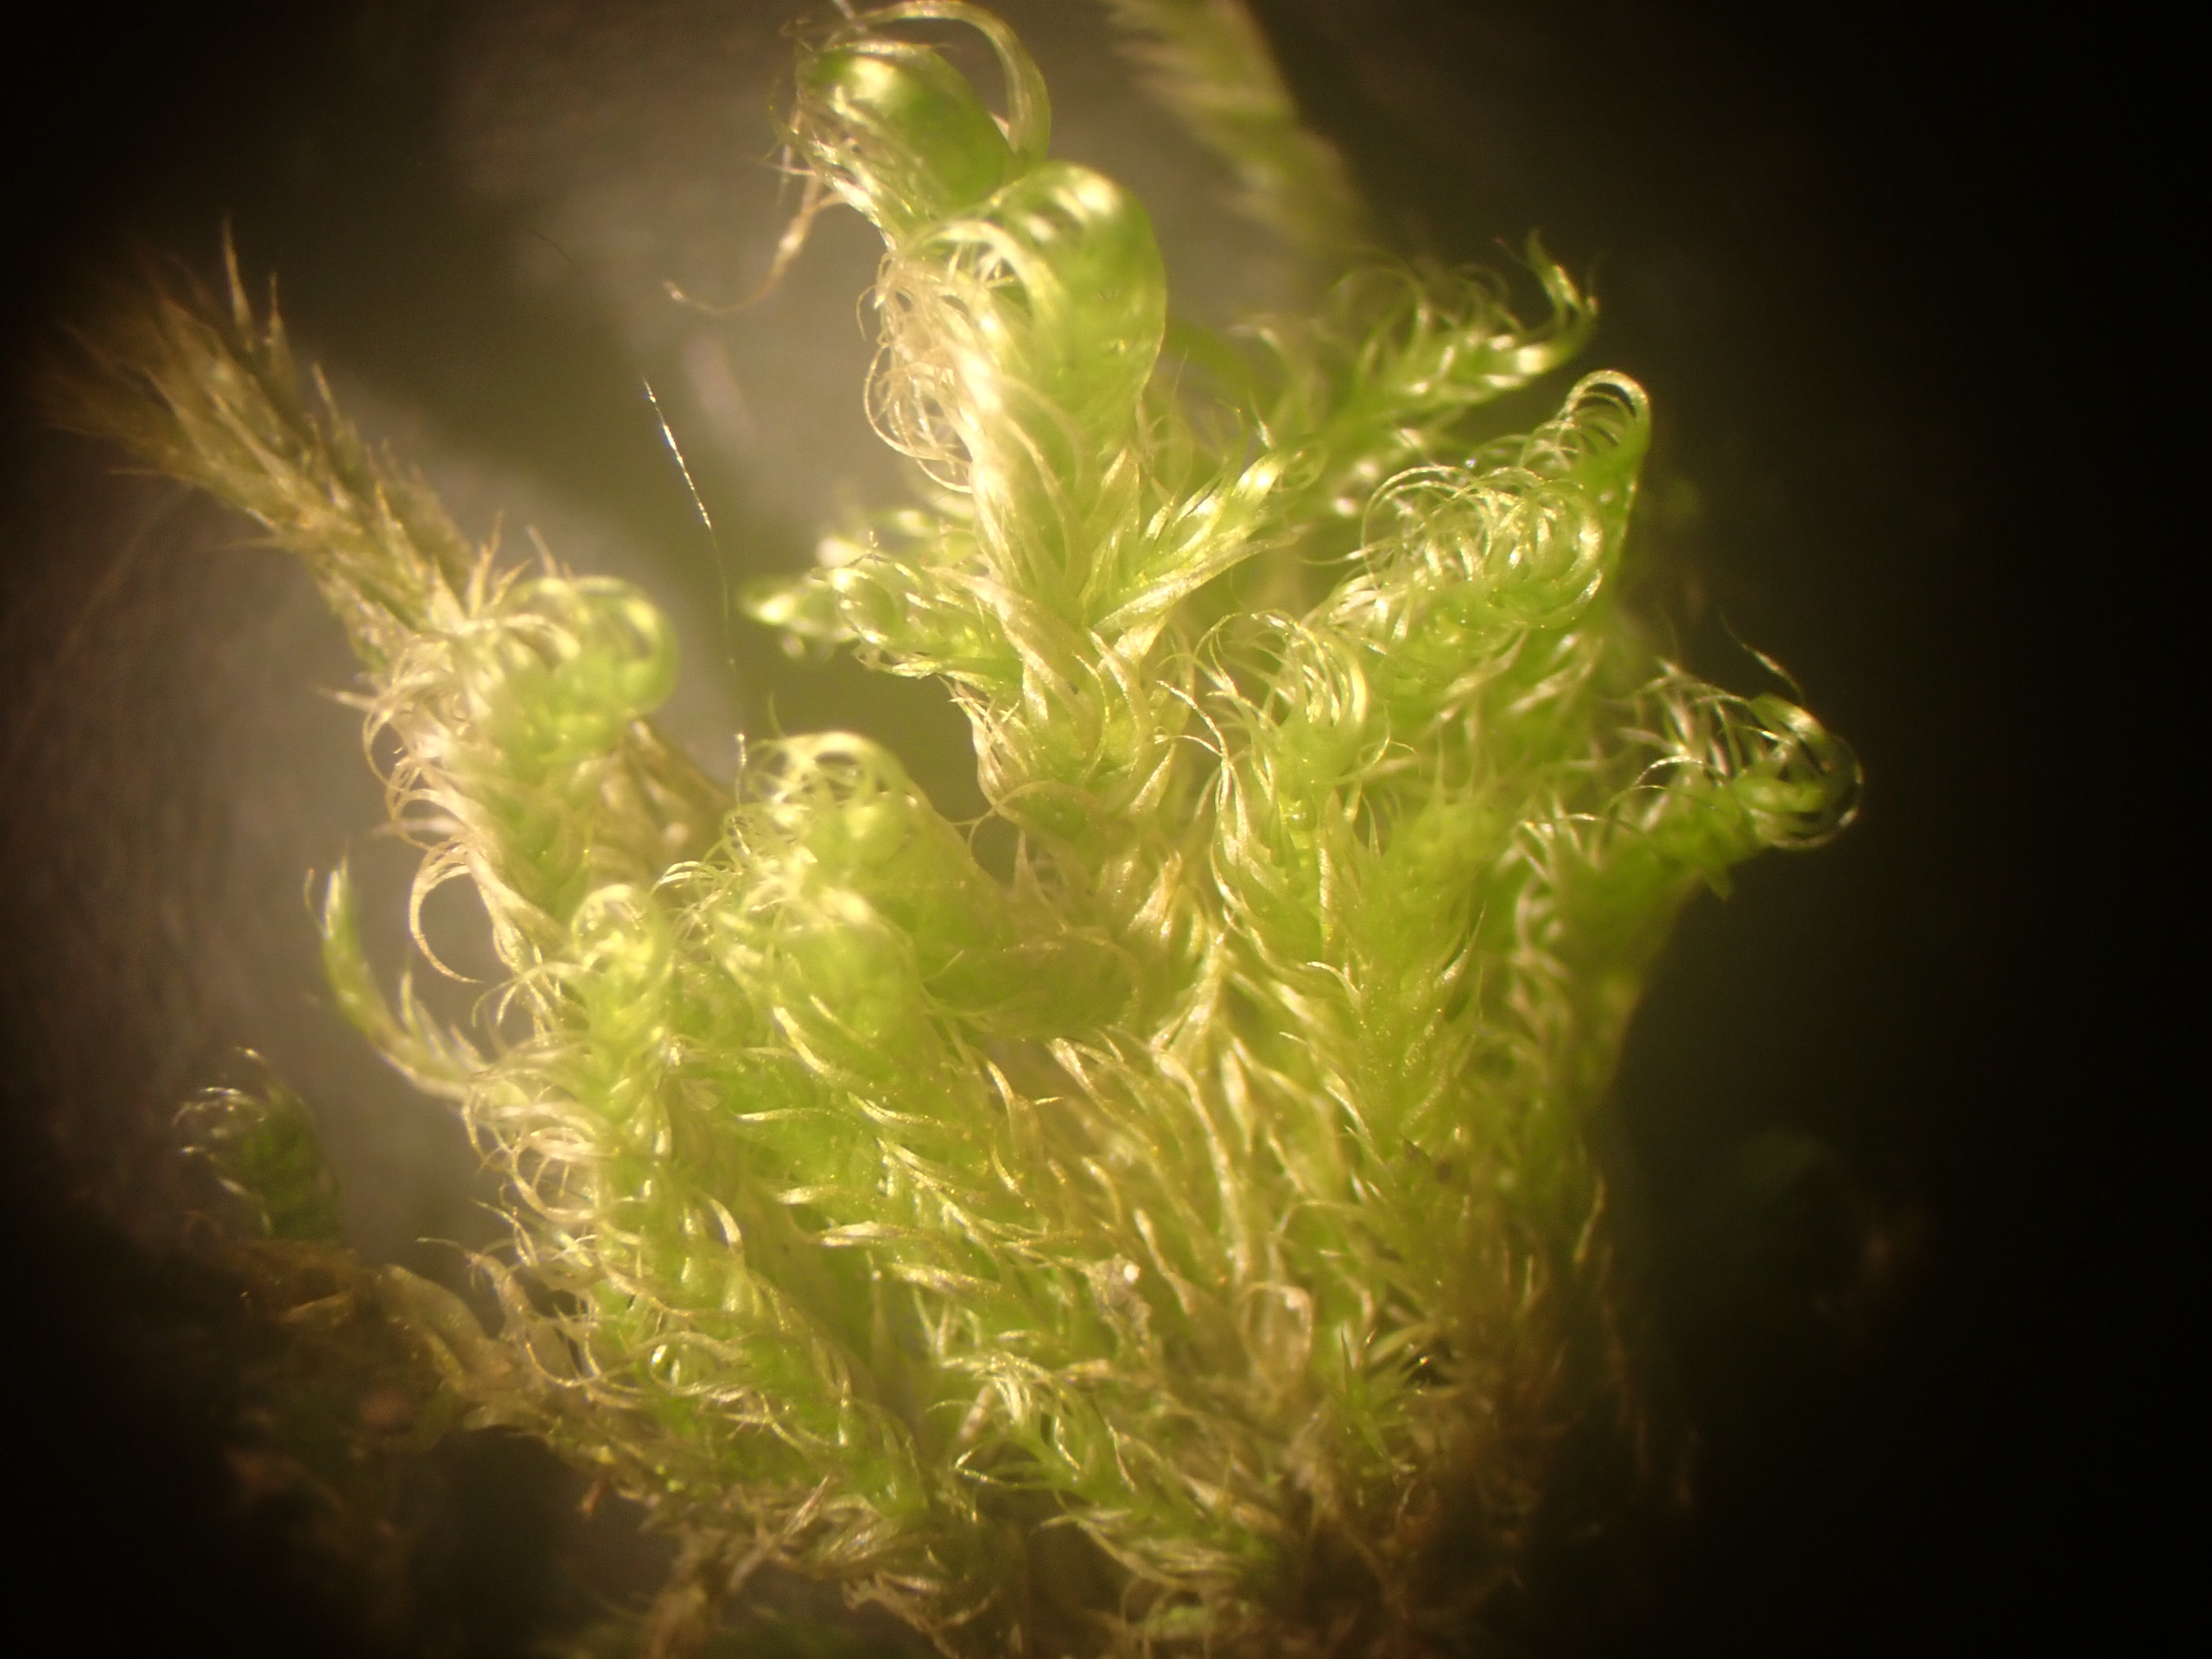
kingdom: Plantae
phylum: Bryophyta
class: Bryopsida
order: Hypnales
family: Scorpidiaceae
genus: Sanionia
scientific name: Sanionia uncinata
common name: Stribet krogblad
